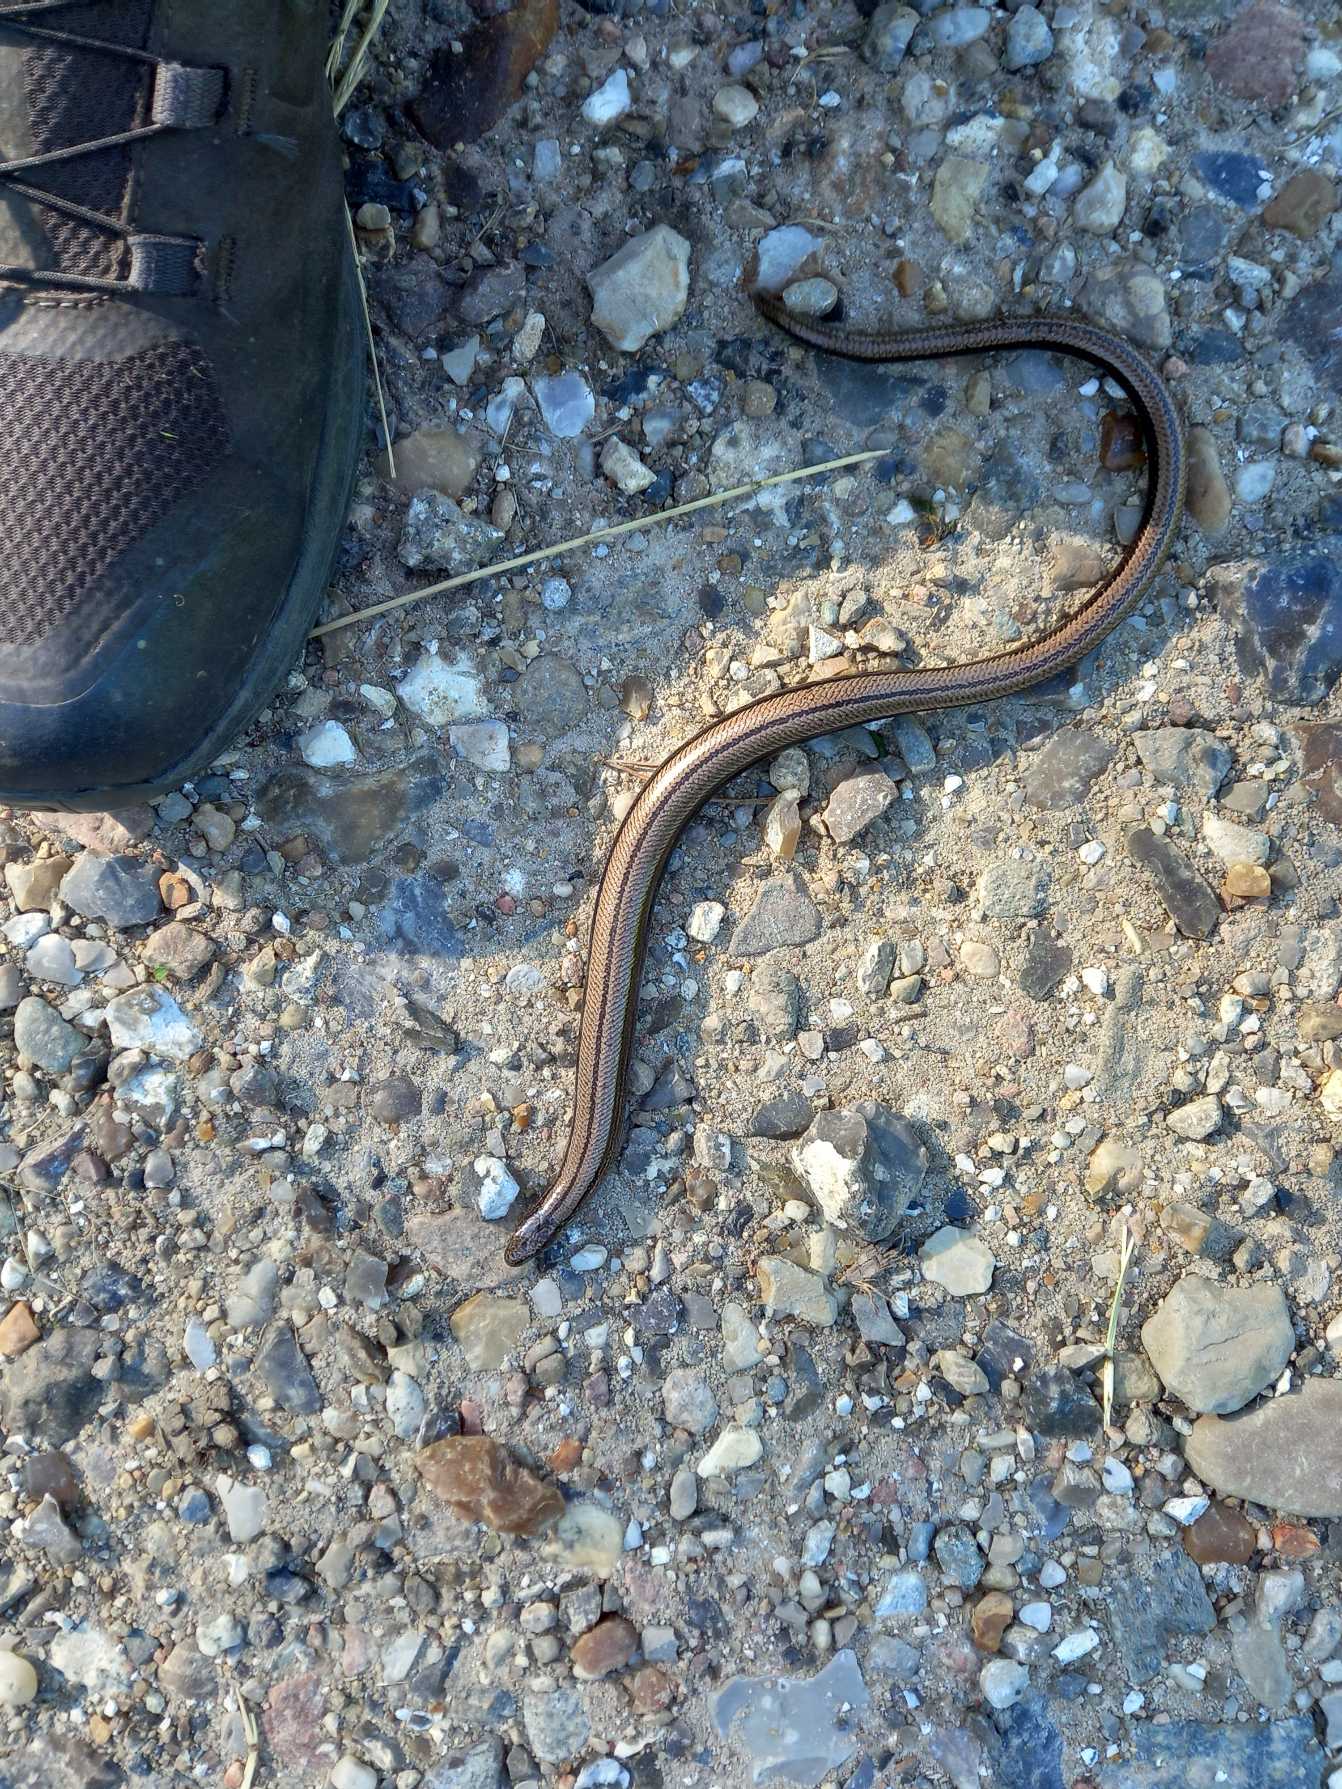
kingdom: Animalia
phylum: Chordata
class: Squamata
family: Anguidae
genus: Anguis
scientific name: Anguis fragilis
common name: Stålorm
